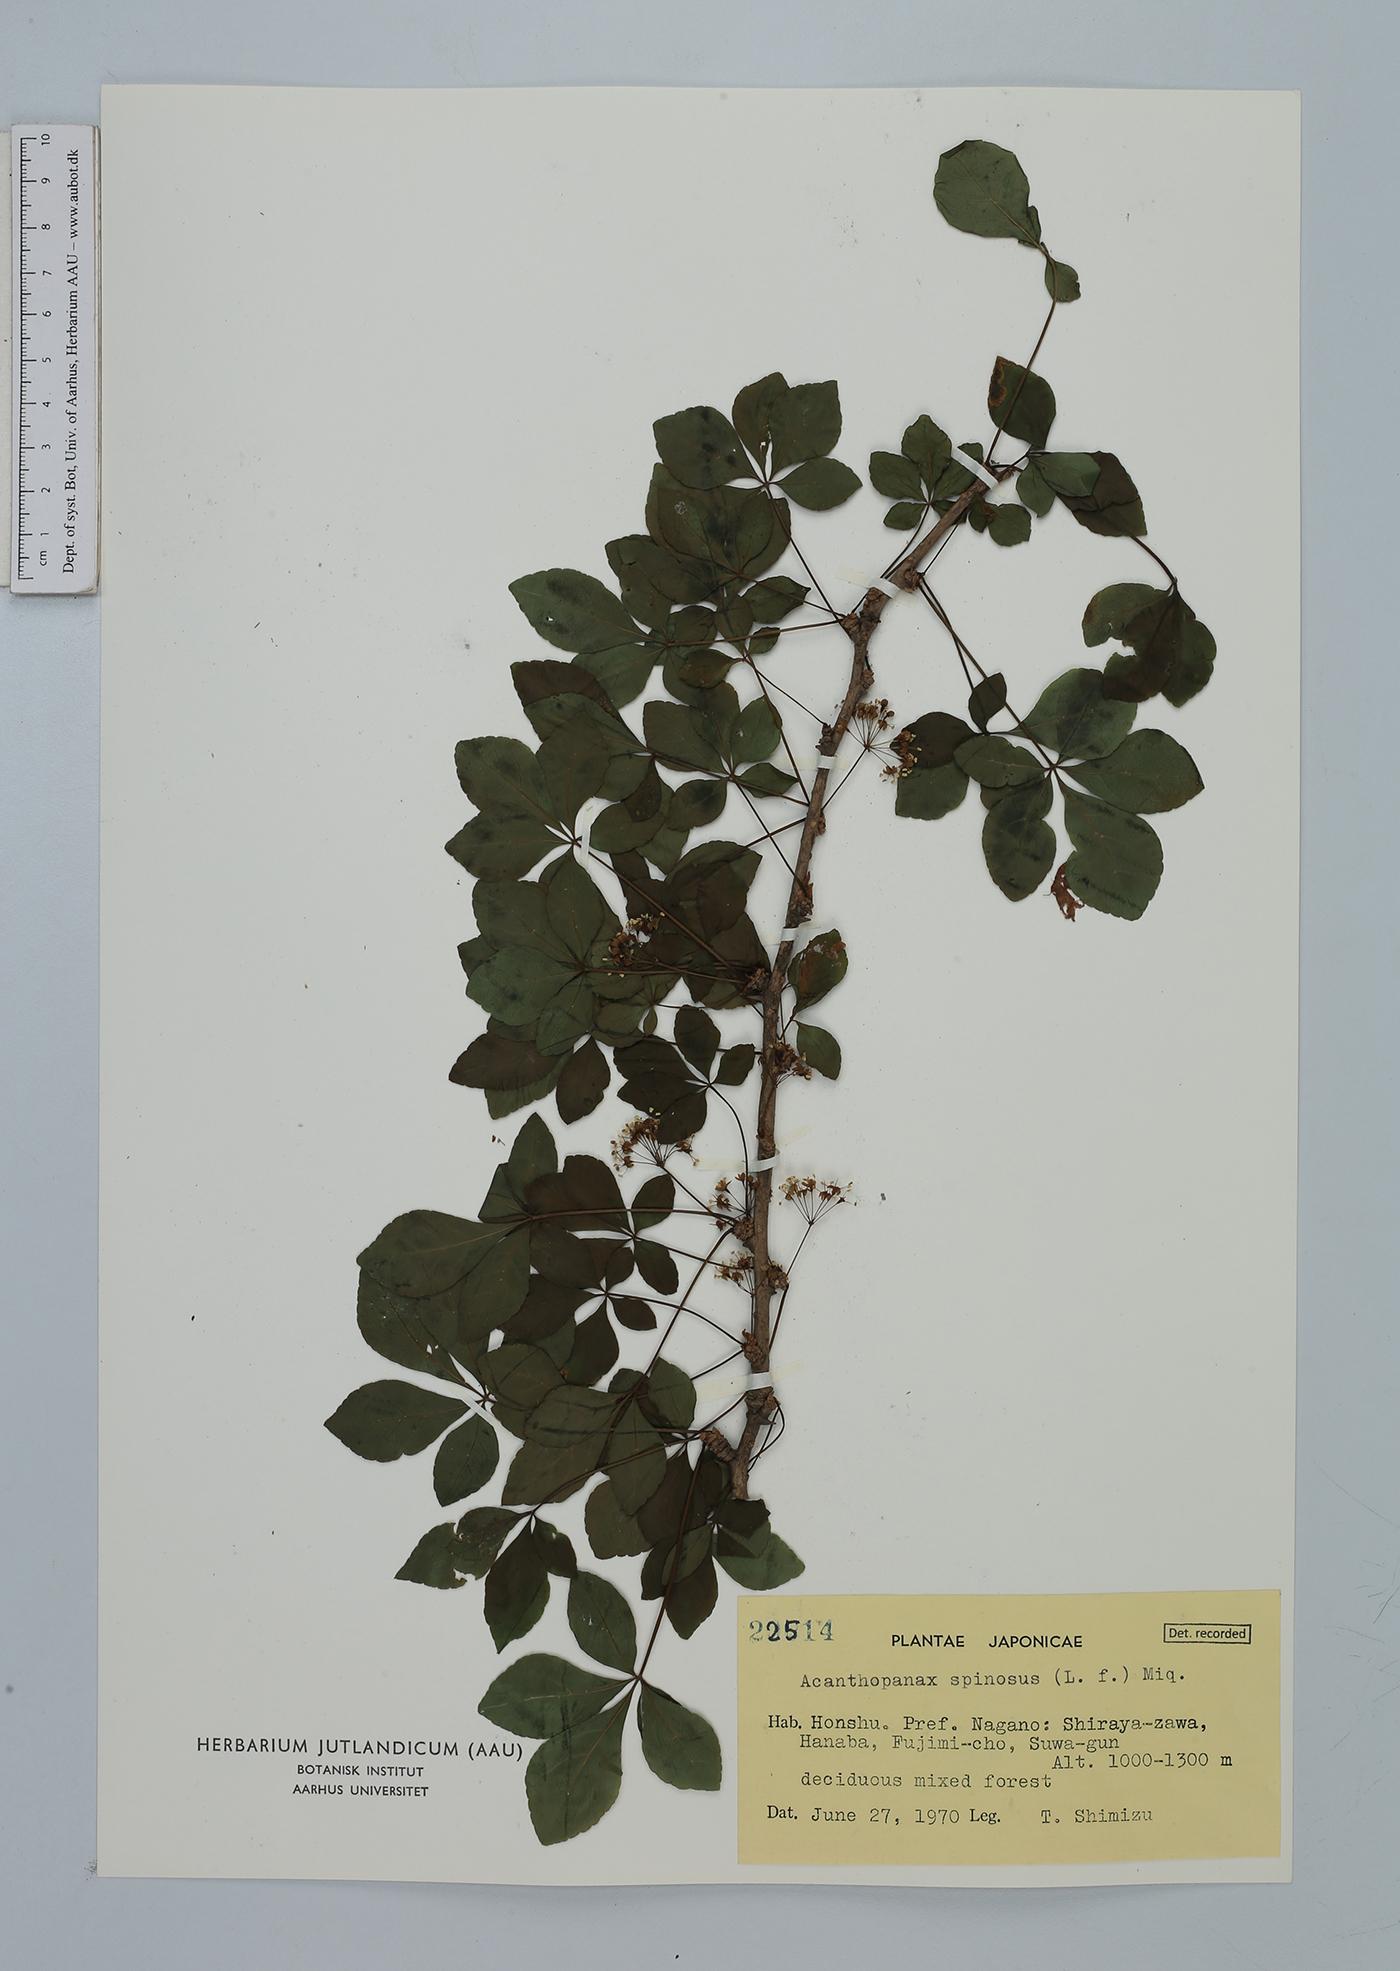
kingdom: Plantae
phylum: Tracheophyta
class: Magnoliopsida
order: Apiales
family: Araliaceae
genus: Eleutherococcus
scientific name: Eleutherococcus spinosus
